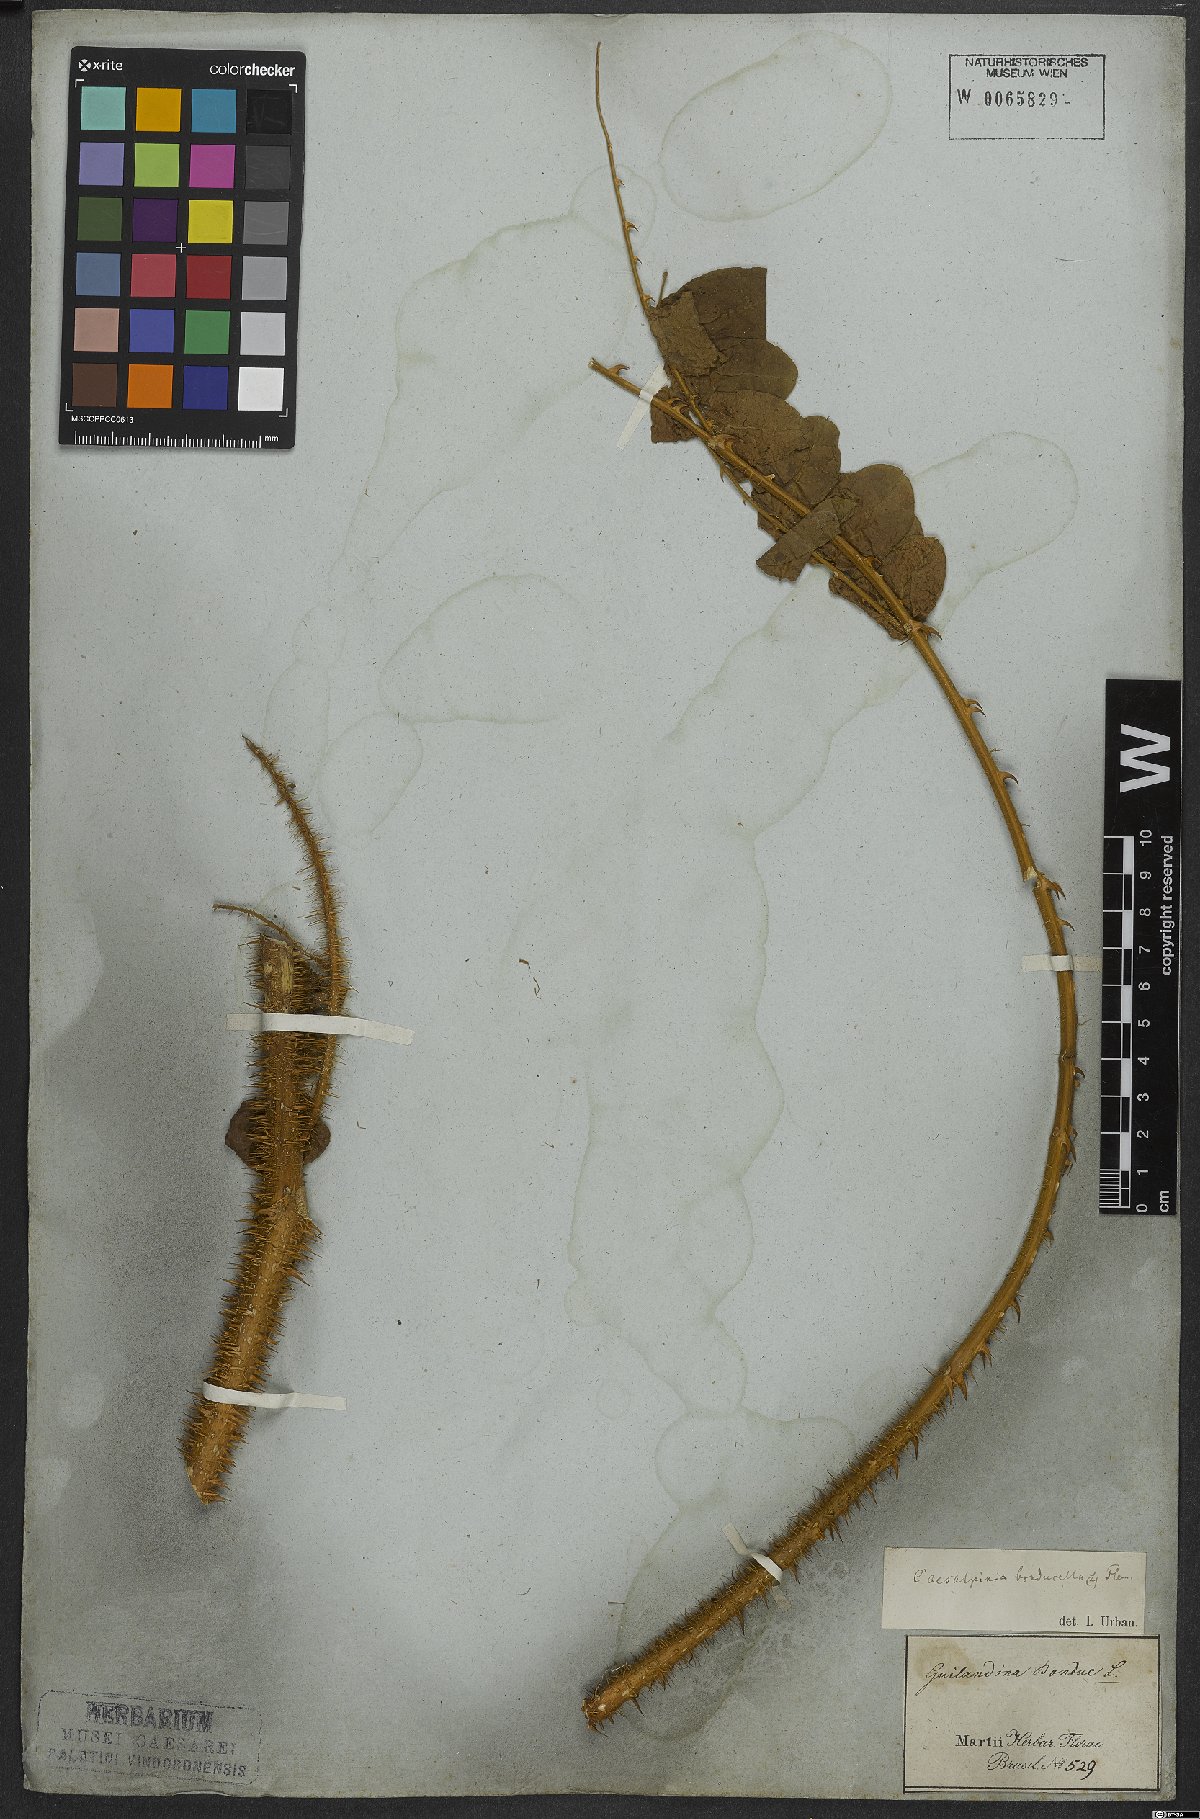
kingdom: Plantae
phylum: Tracheophyta
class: Magnoliopsida
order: Fabales
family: Fabaceae
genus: Guilandina
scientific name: Guilandina bonduc
